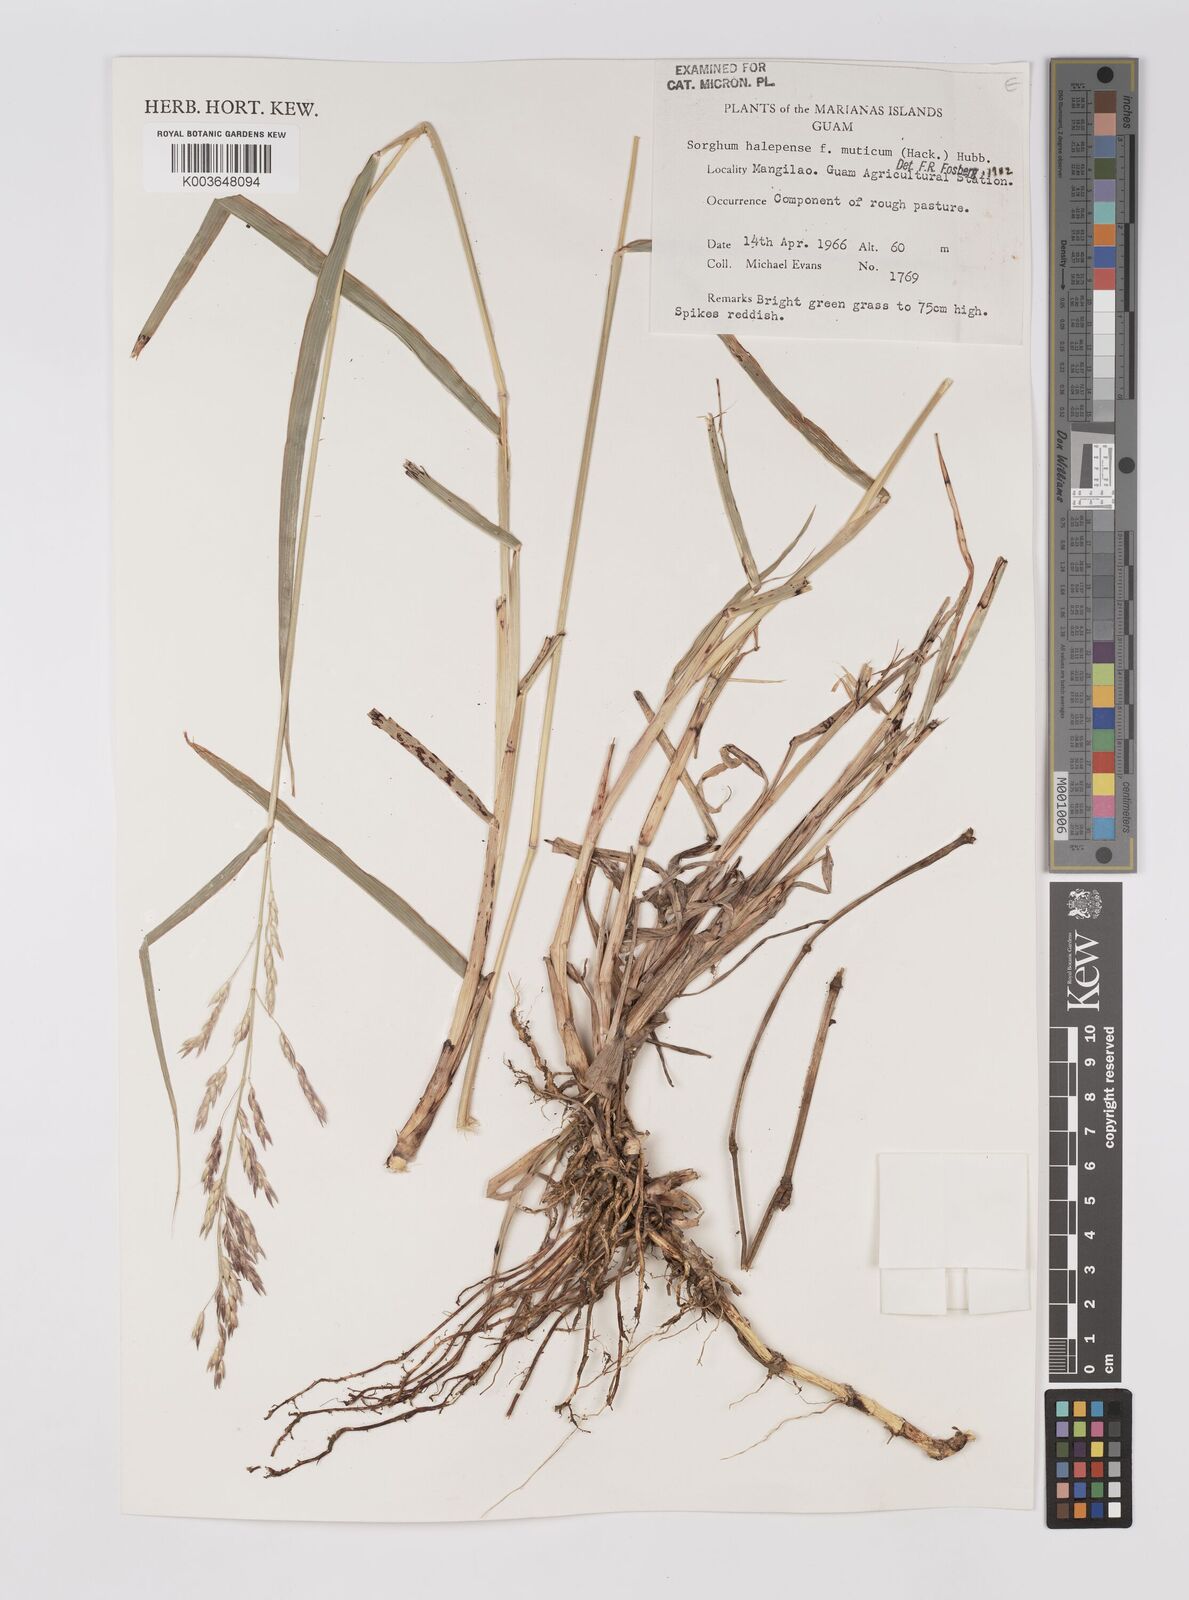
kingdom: Plantae
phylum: Tracheophyta
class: Liliopsida
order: Poales
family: Poaceae
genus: Sorghum
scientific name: Sorghum halepense
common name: Johnson-grass
